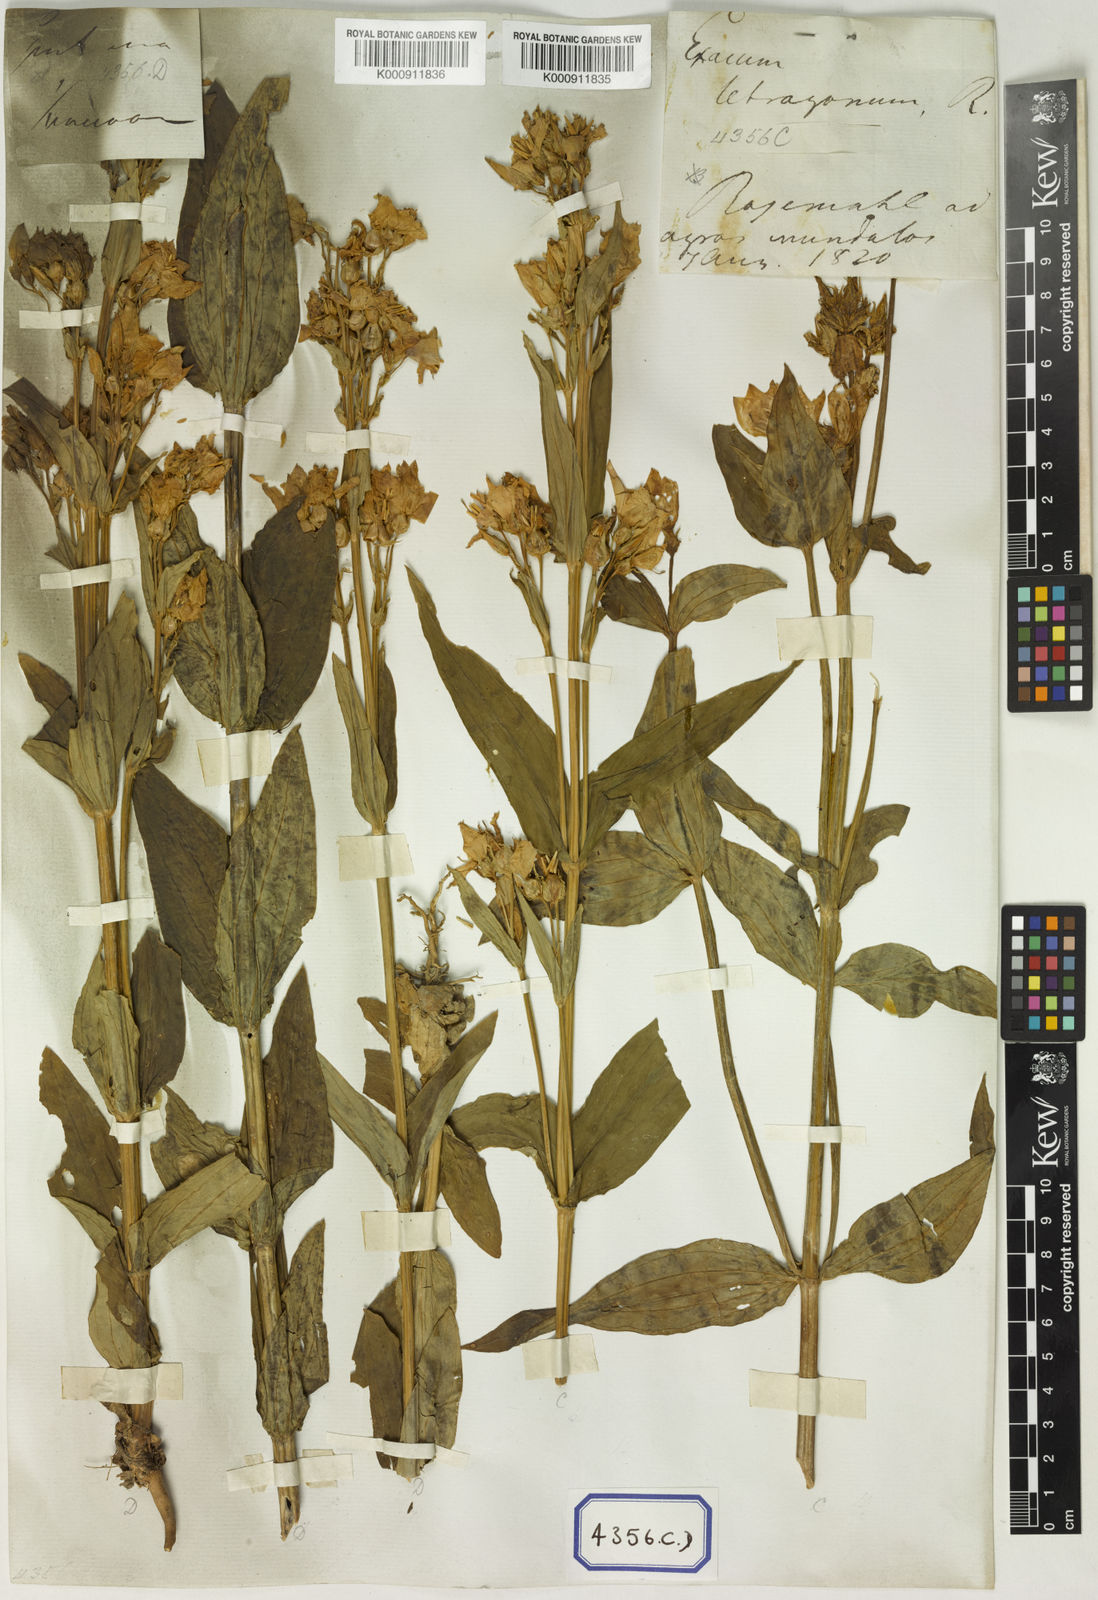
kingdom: Plantae
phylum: Tracheophyta
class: Magnoliopsida
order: Gentianales
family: Gentianaceae
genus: Exacum
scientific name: Exacum tetragonum
